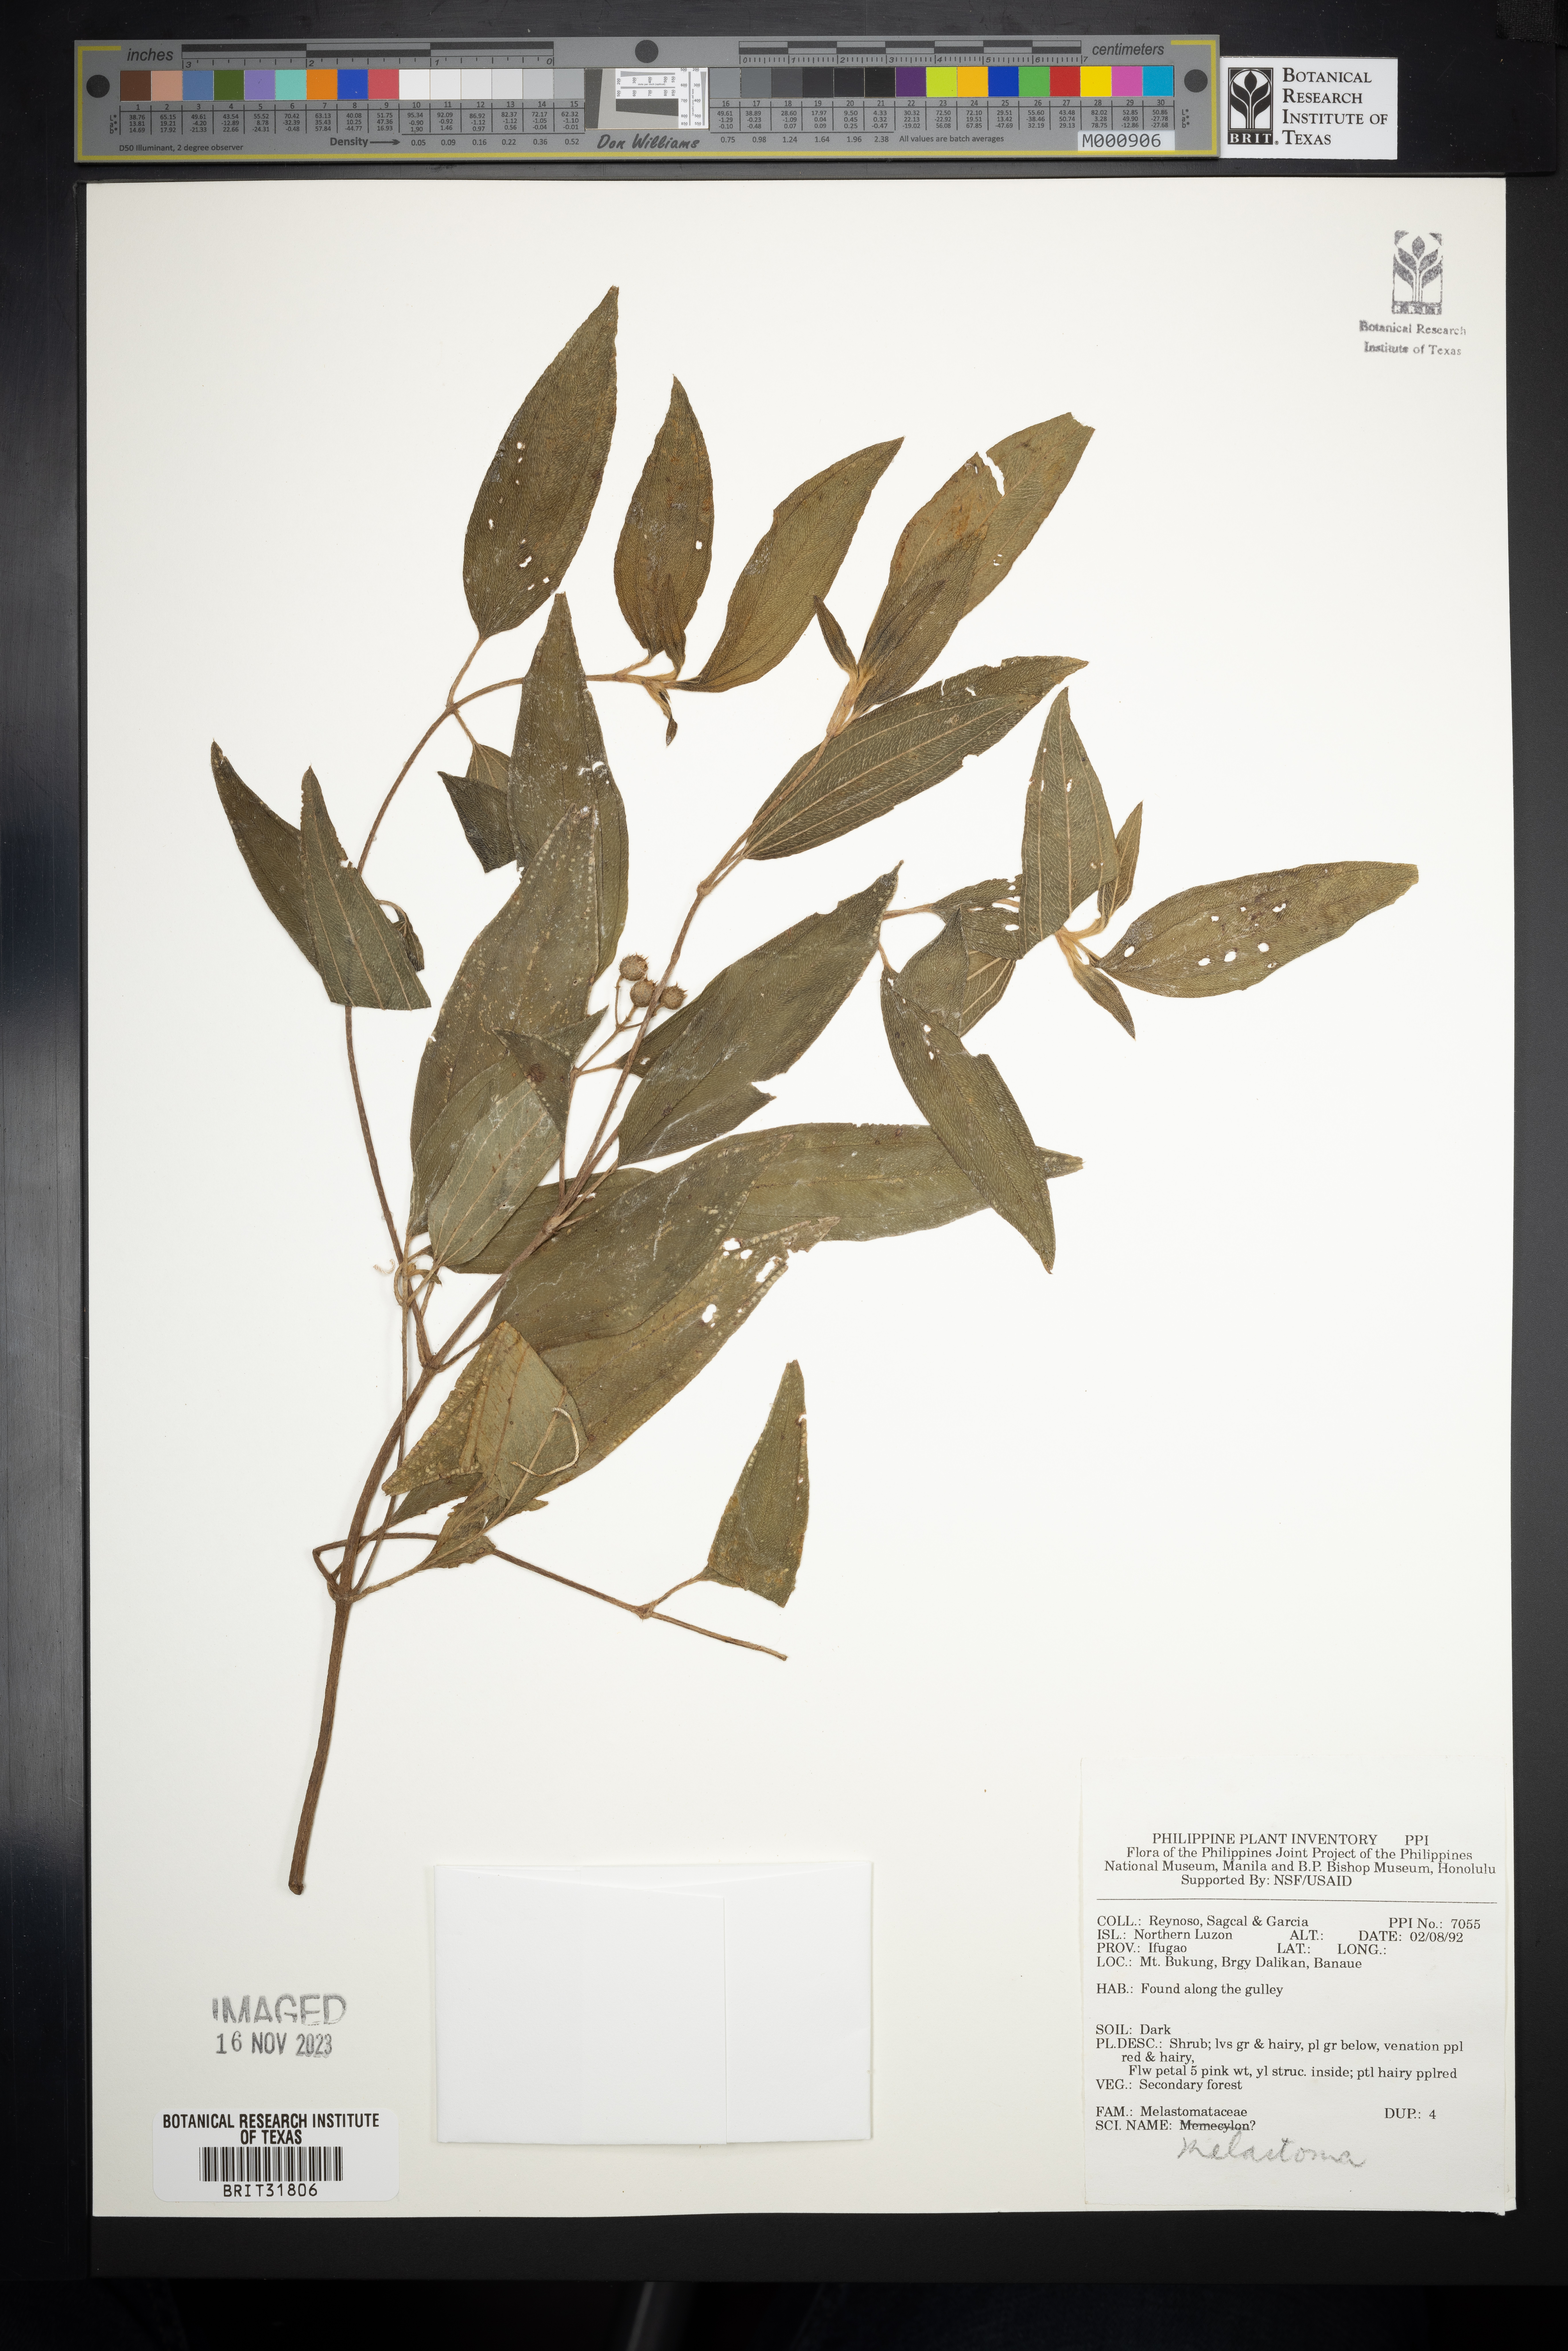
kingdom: Plantae
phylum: Tracheophyta
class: Magnoliopsida
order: Myrtales
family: Melastomataceae
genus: Melastoma
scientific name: Melastoma
